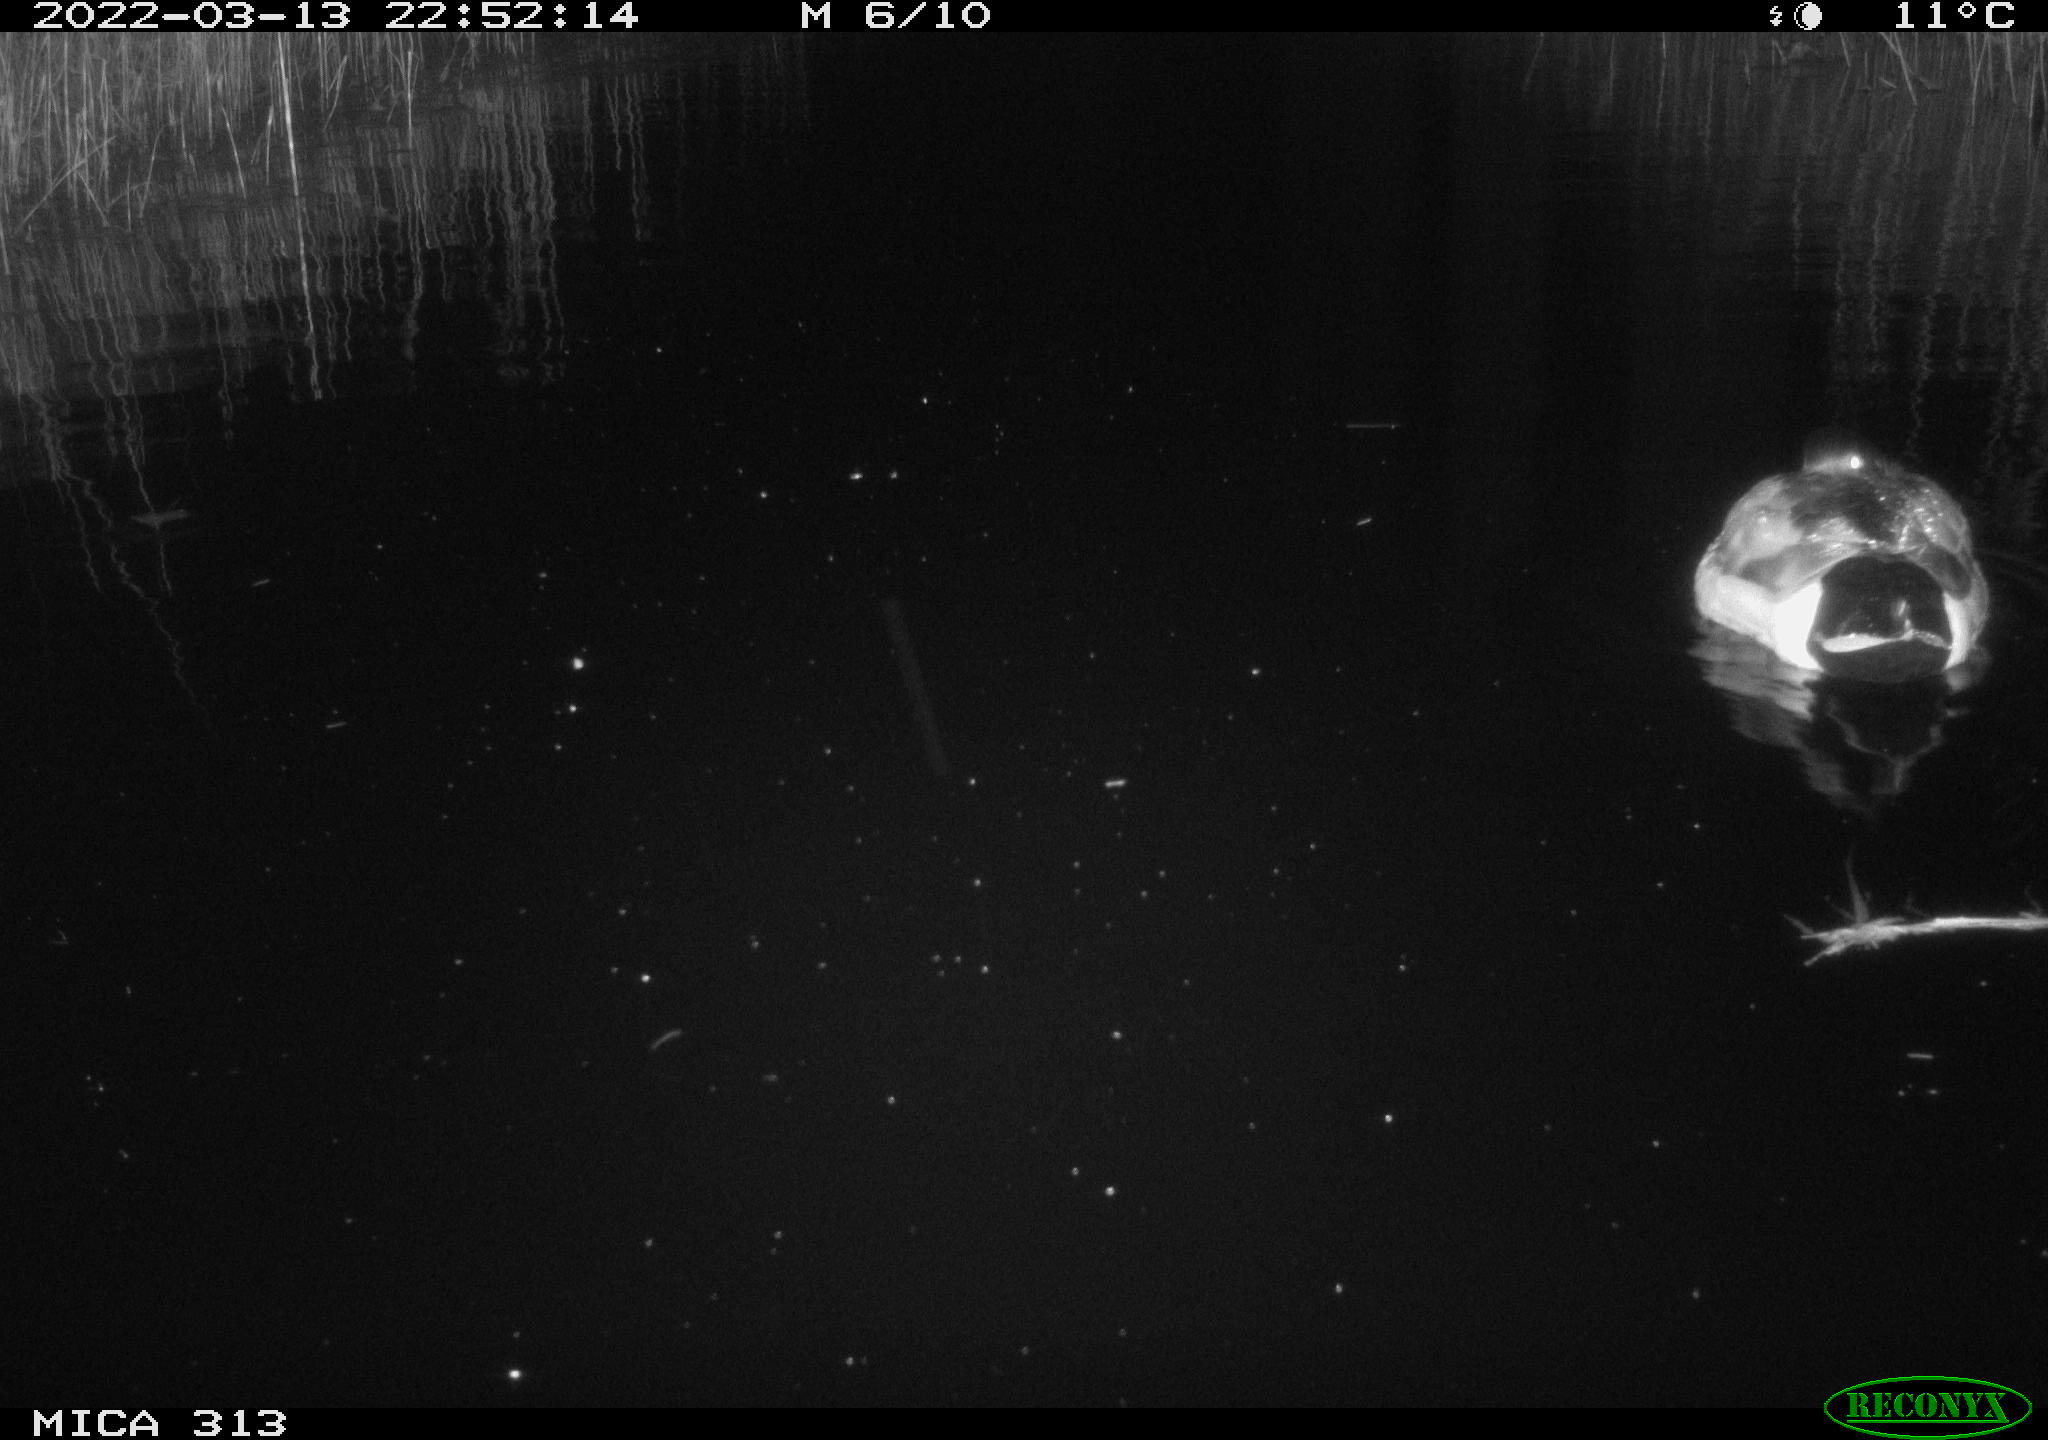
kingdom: Animalia
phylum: Chordata
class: Aves
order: Anseriformes
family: Anatidae
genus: Anas
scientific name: Anas platyrhynchos
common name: Mallard
